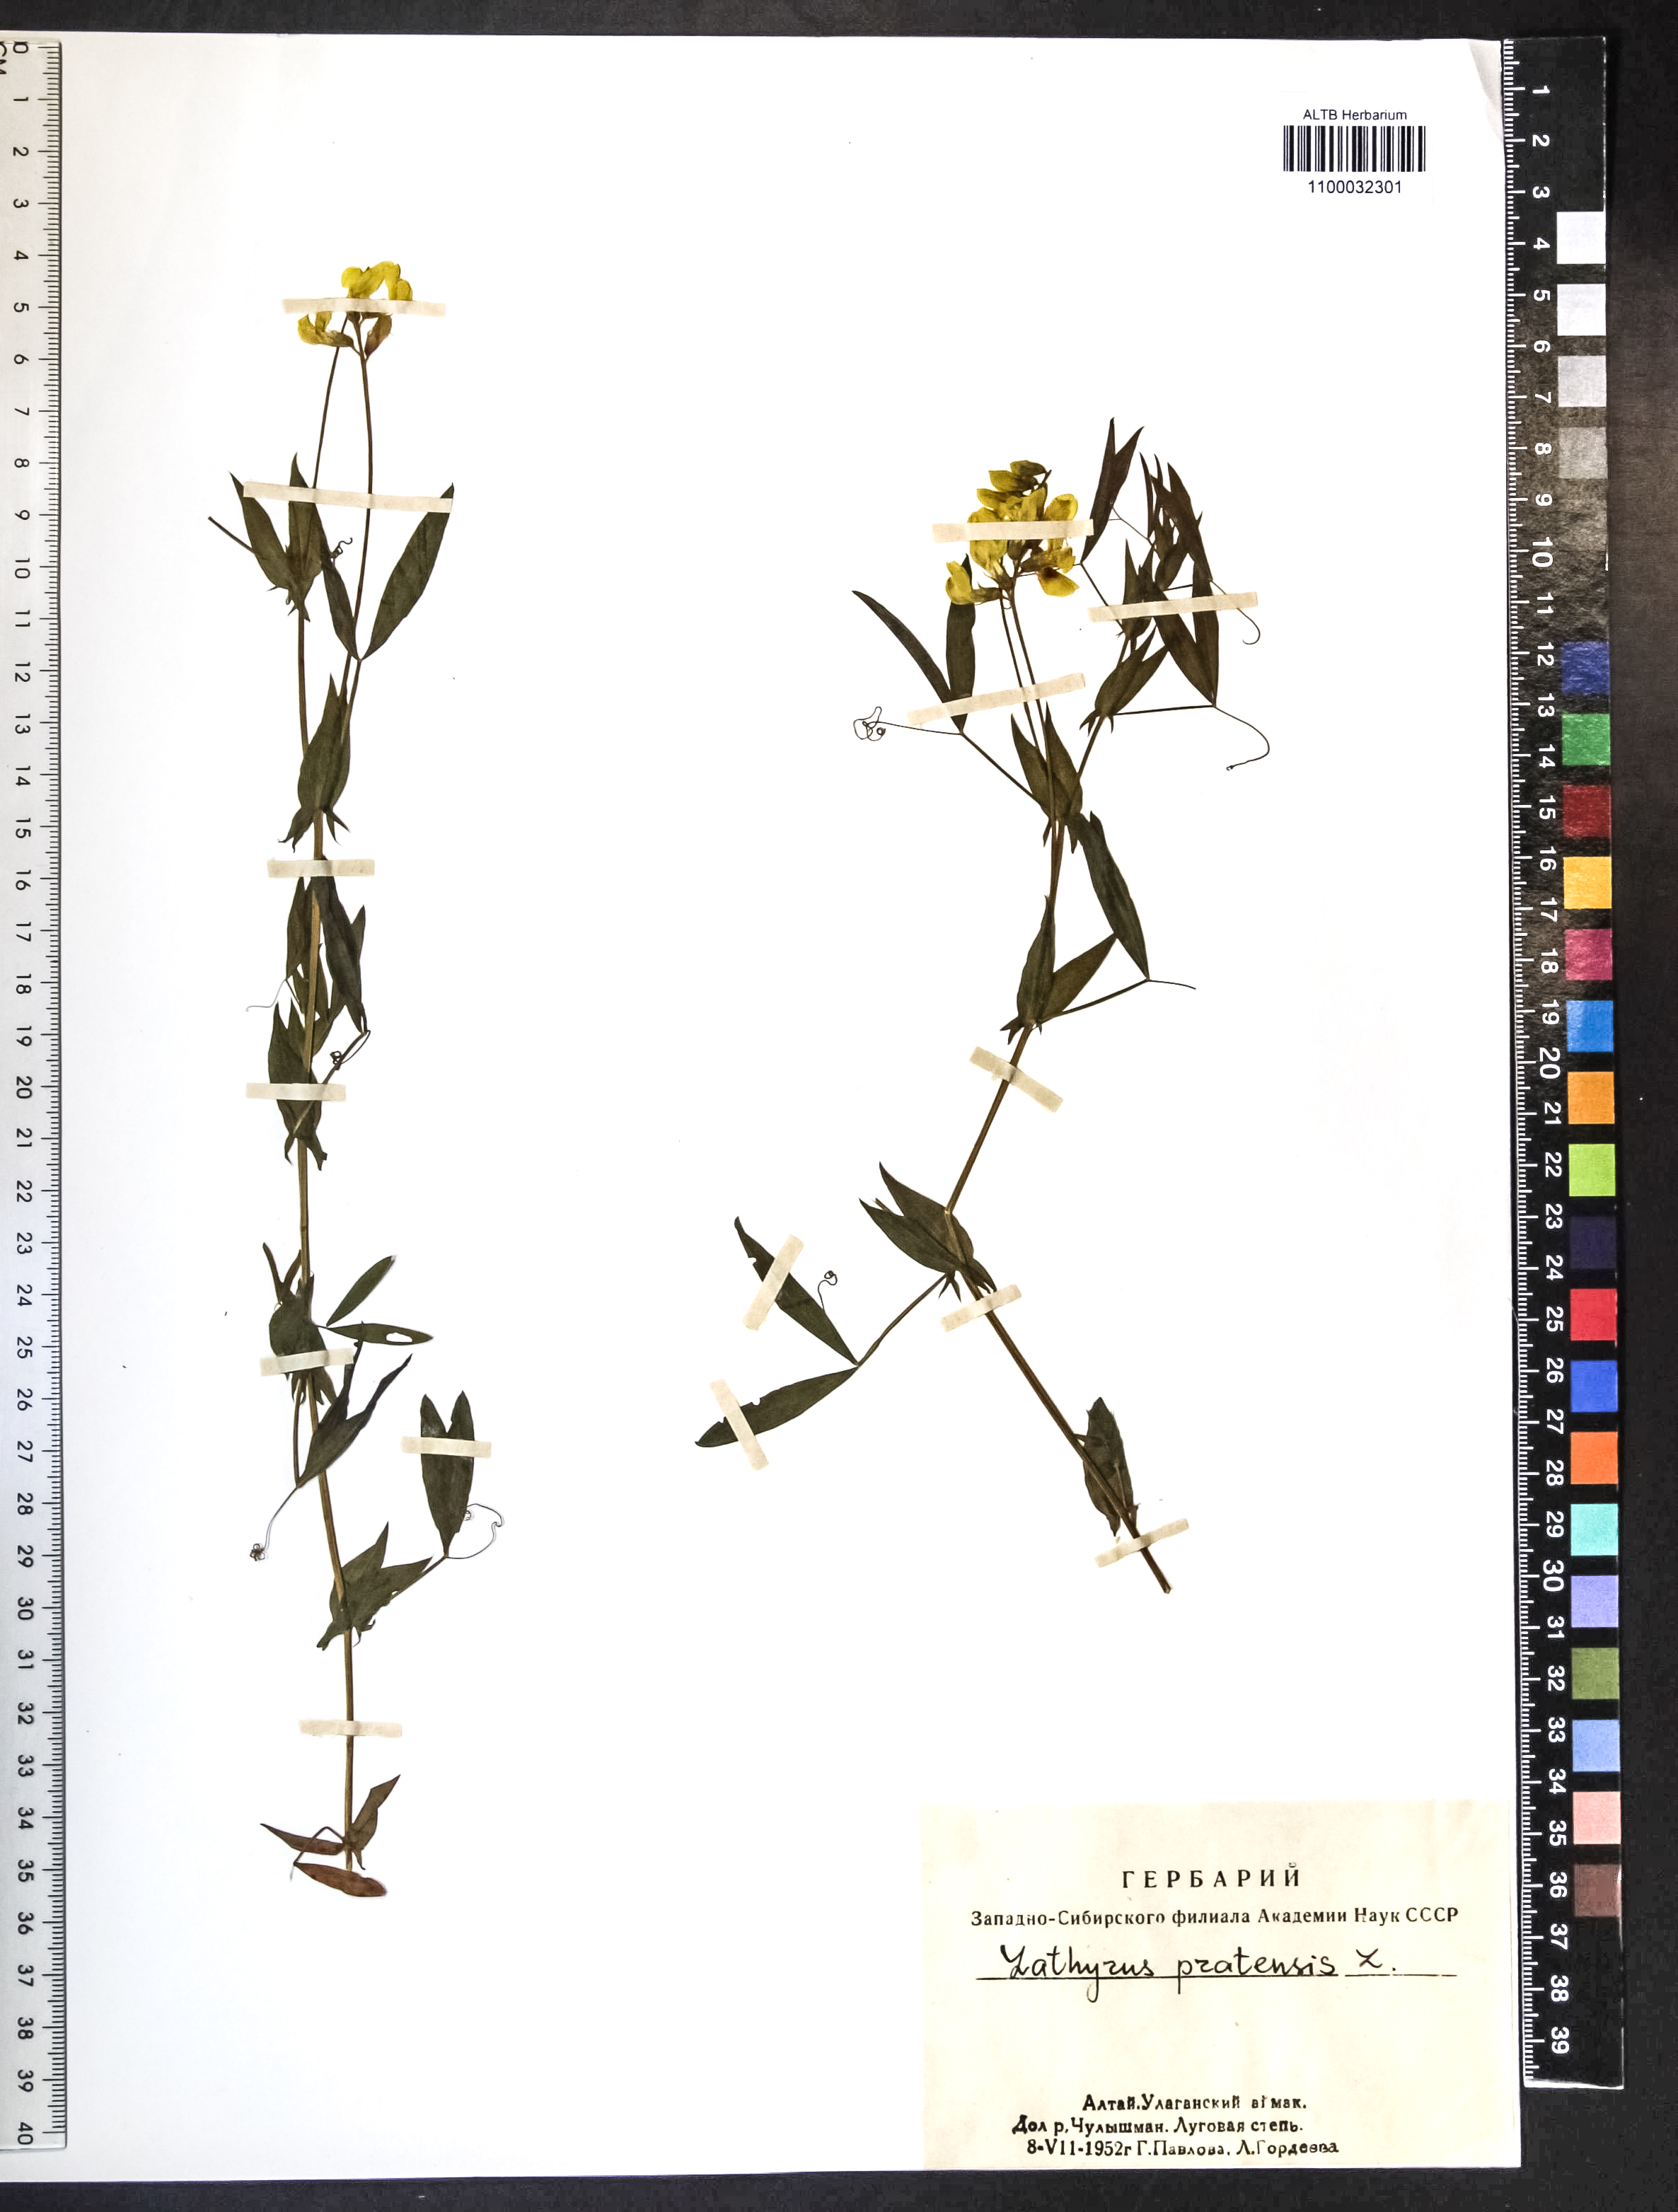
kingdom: Plantae
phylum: Tracheophyta
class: Magnoliopsida
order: Fabales
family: Fabaceae
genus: Lathyrus
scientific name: Lathyrus pratensis
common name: Meadow vetchling
